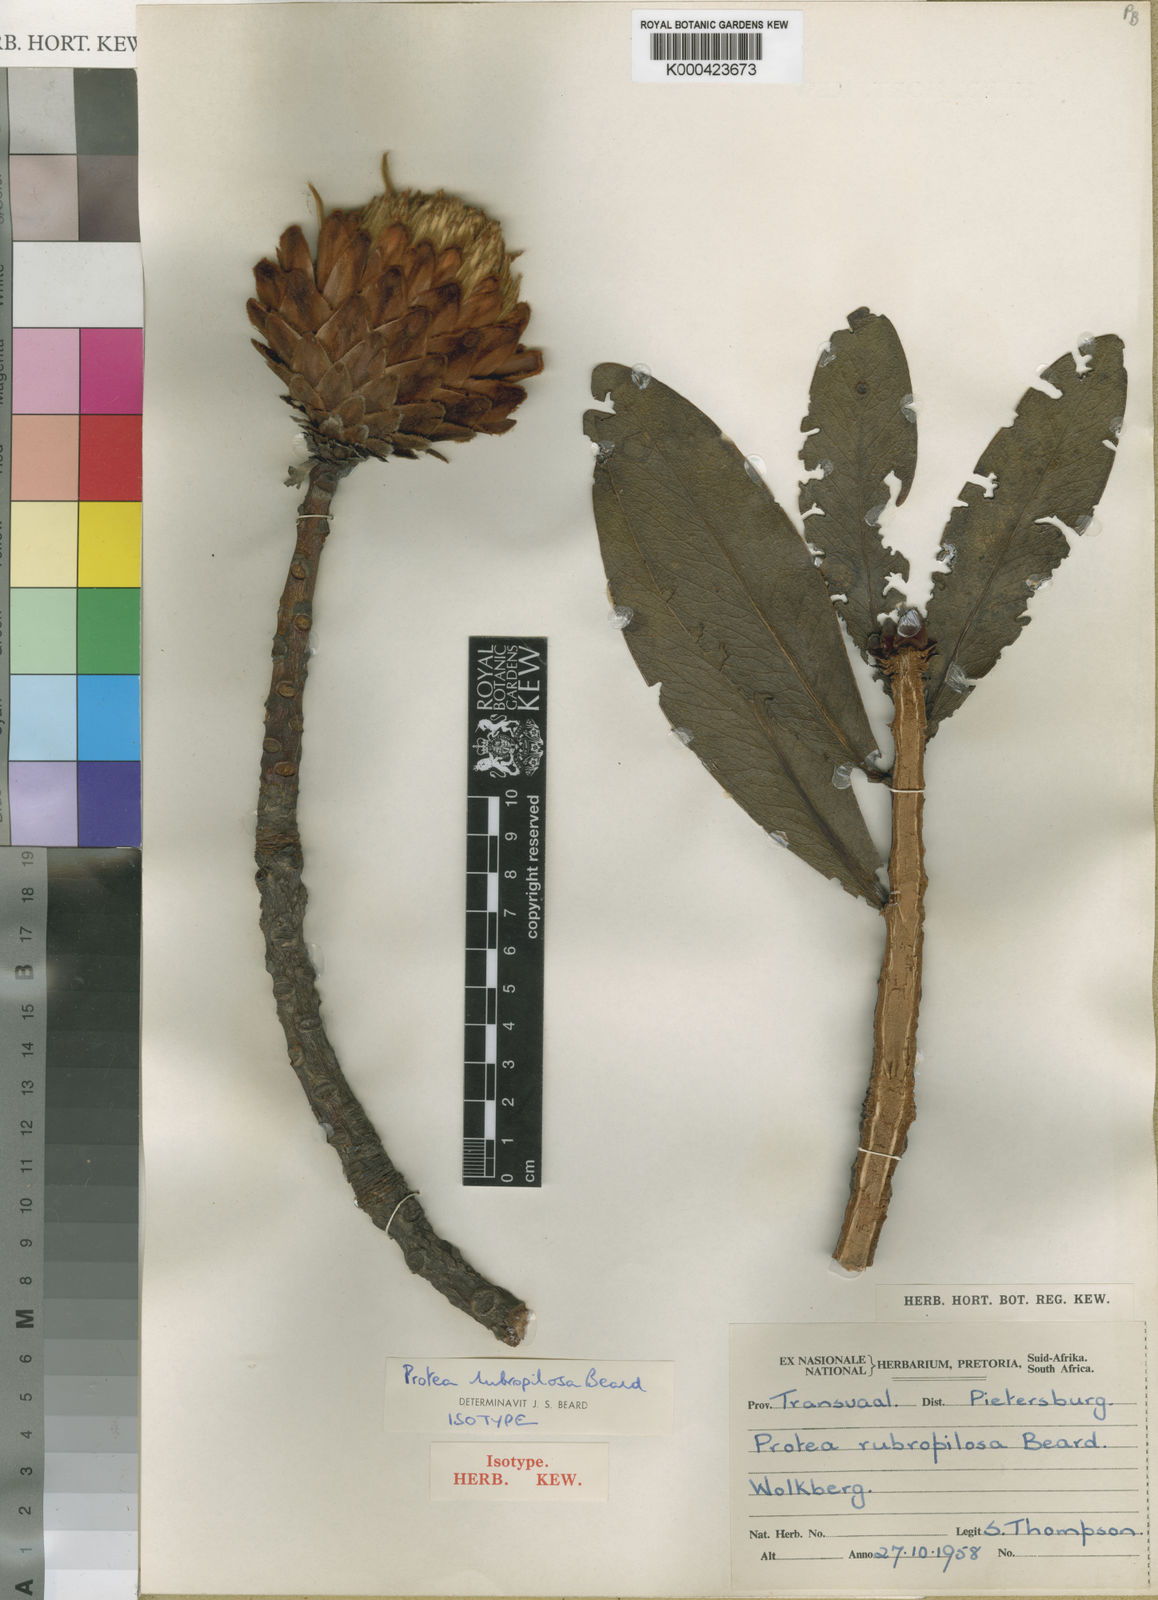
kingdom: Plantae
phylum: Tracheophyta
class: Magnoliopsida
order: Proteales
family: Proteaceae
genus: Protea
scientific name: Protea rubropilosa
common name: Escarpment sugarbush
